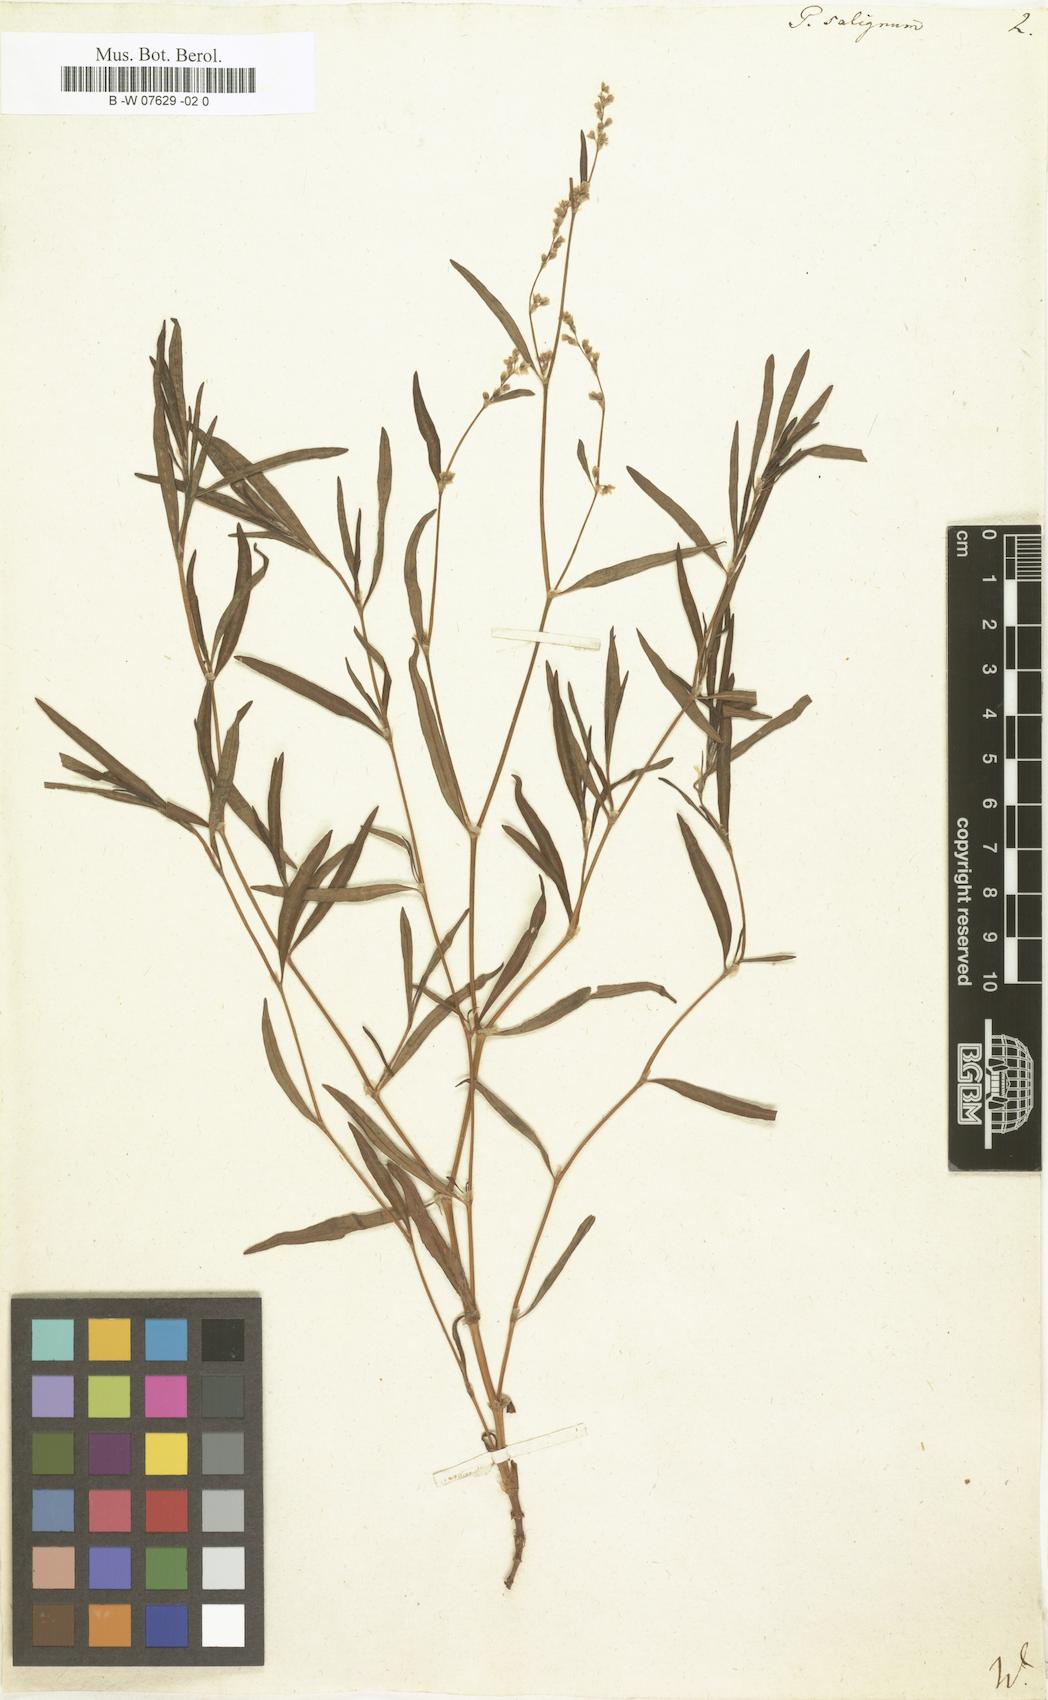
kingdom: Plantae
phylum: Tracheophyta
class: Magnoliopsida
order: Caryophyllales
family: Polygonaceae
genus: Persicaria
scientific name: Persicaria angustifolia
